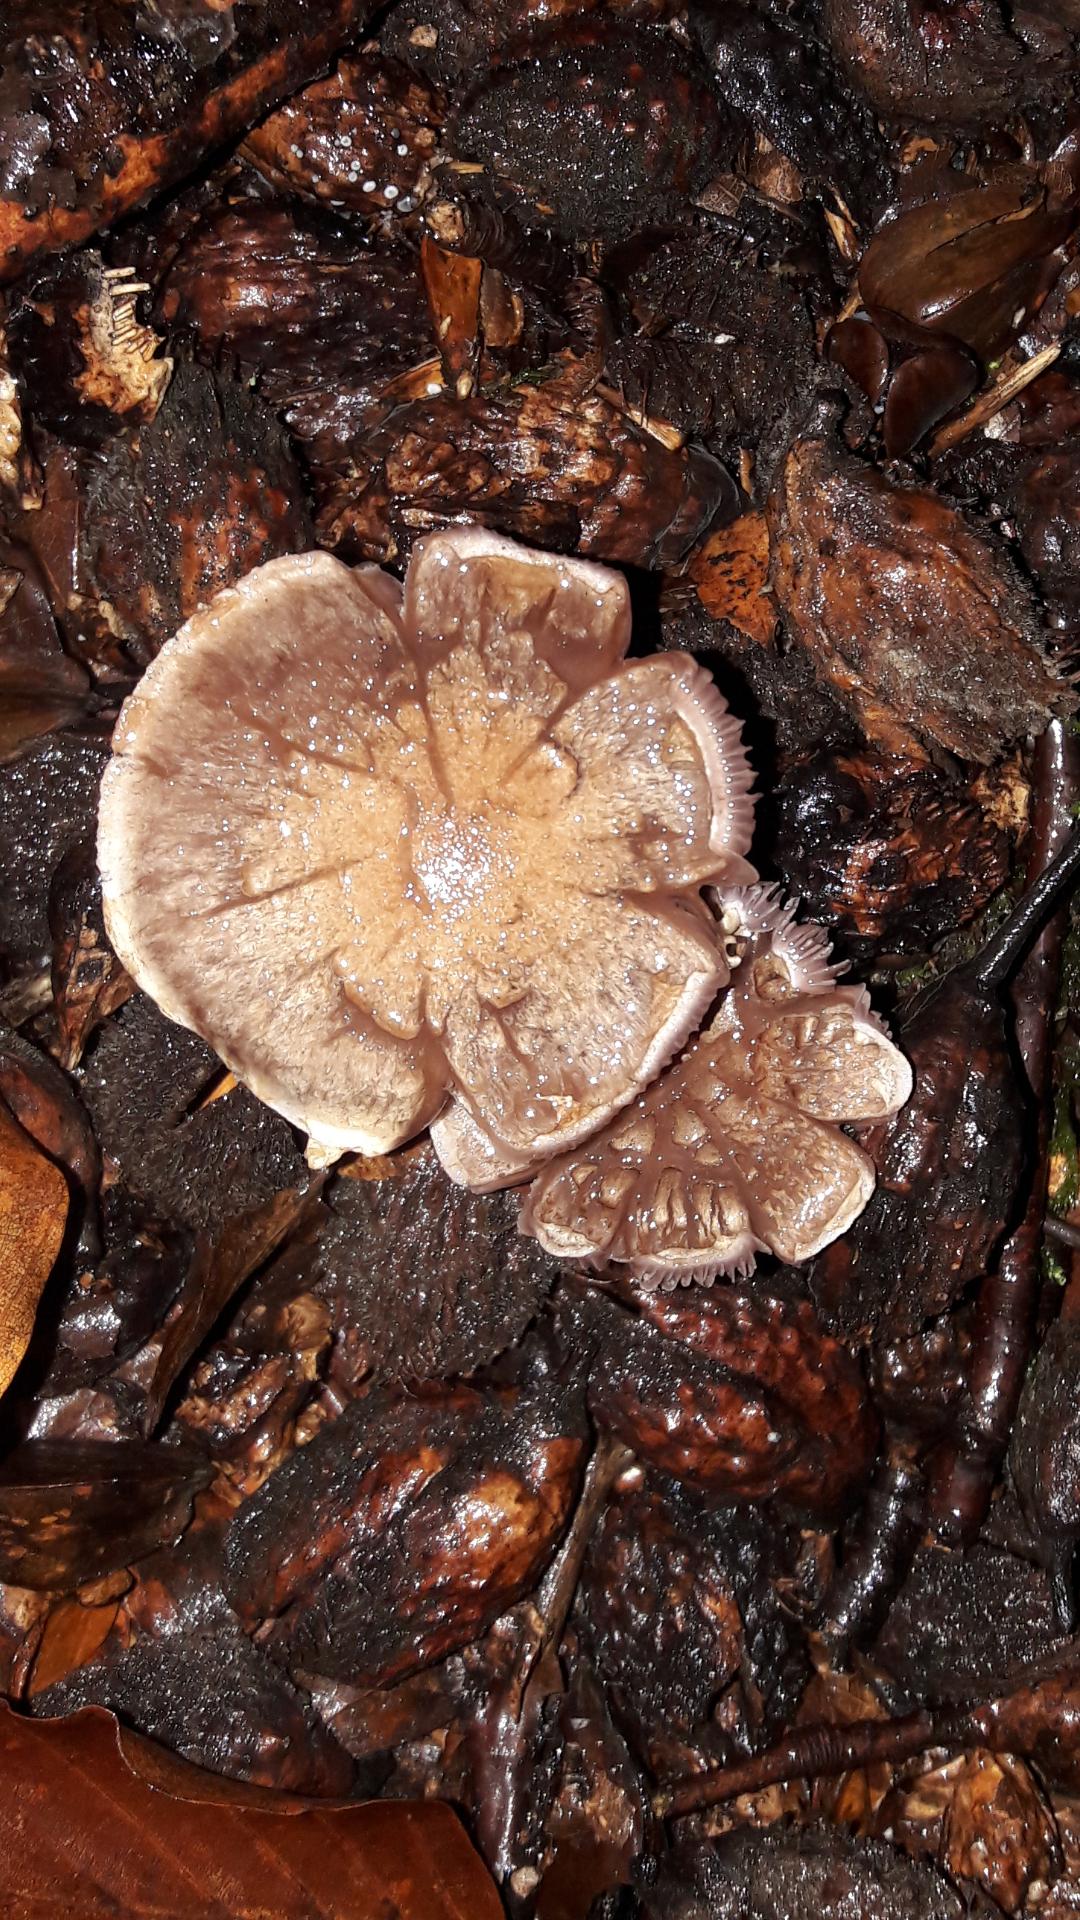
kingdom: Fungi
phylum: Basidiomycota
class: Agaricomycetes
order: Agaricales
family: Cortinariaceae
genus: Cortinarius
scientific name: Cortinarius torvus
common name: champignonagtig slørhat
